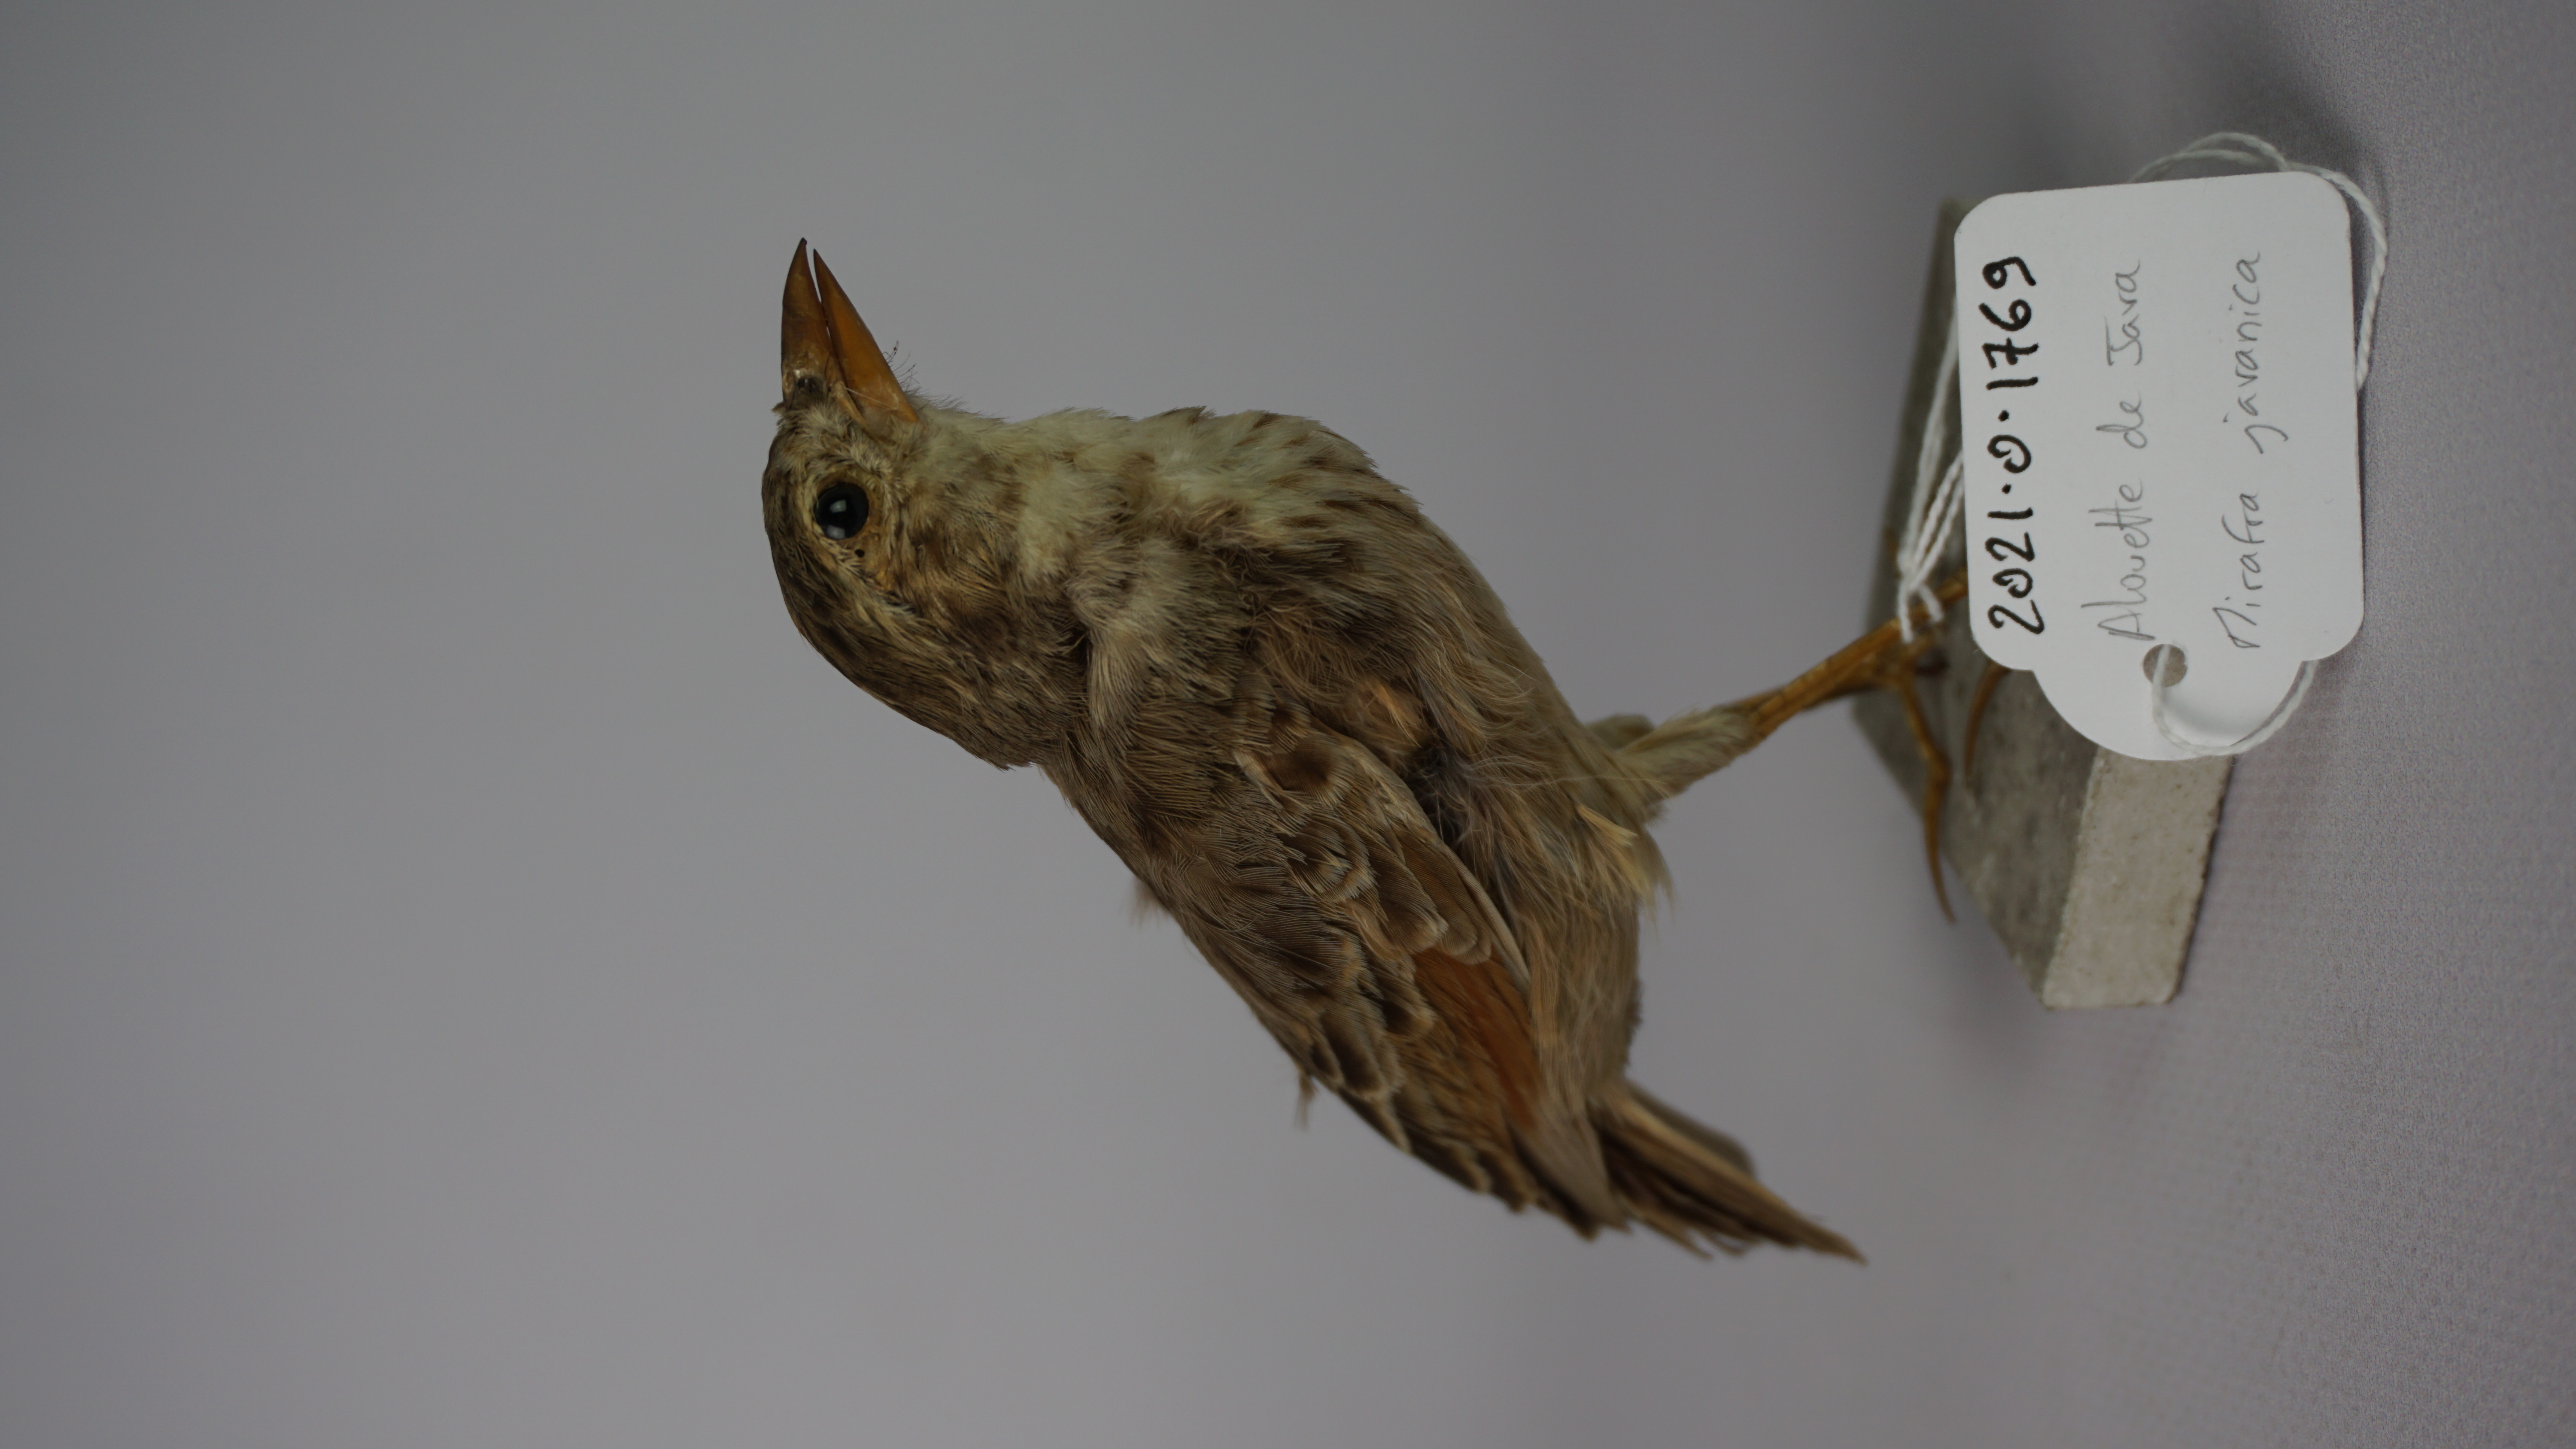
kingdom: Animalia
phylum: Chordata
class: Aves
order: Passeriformes
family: Alaudidae
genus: Mirafra
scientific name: Mirafra javanica
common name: Horsfield's bush lark
